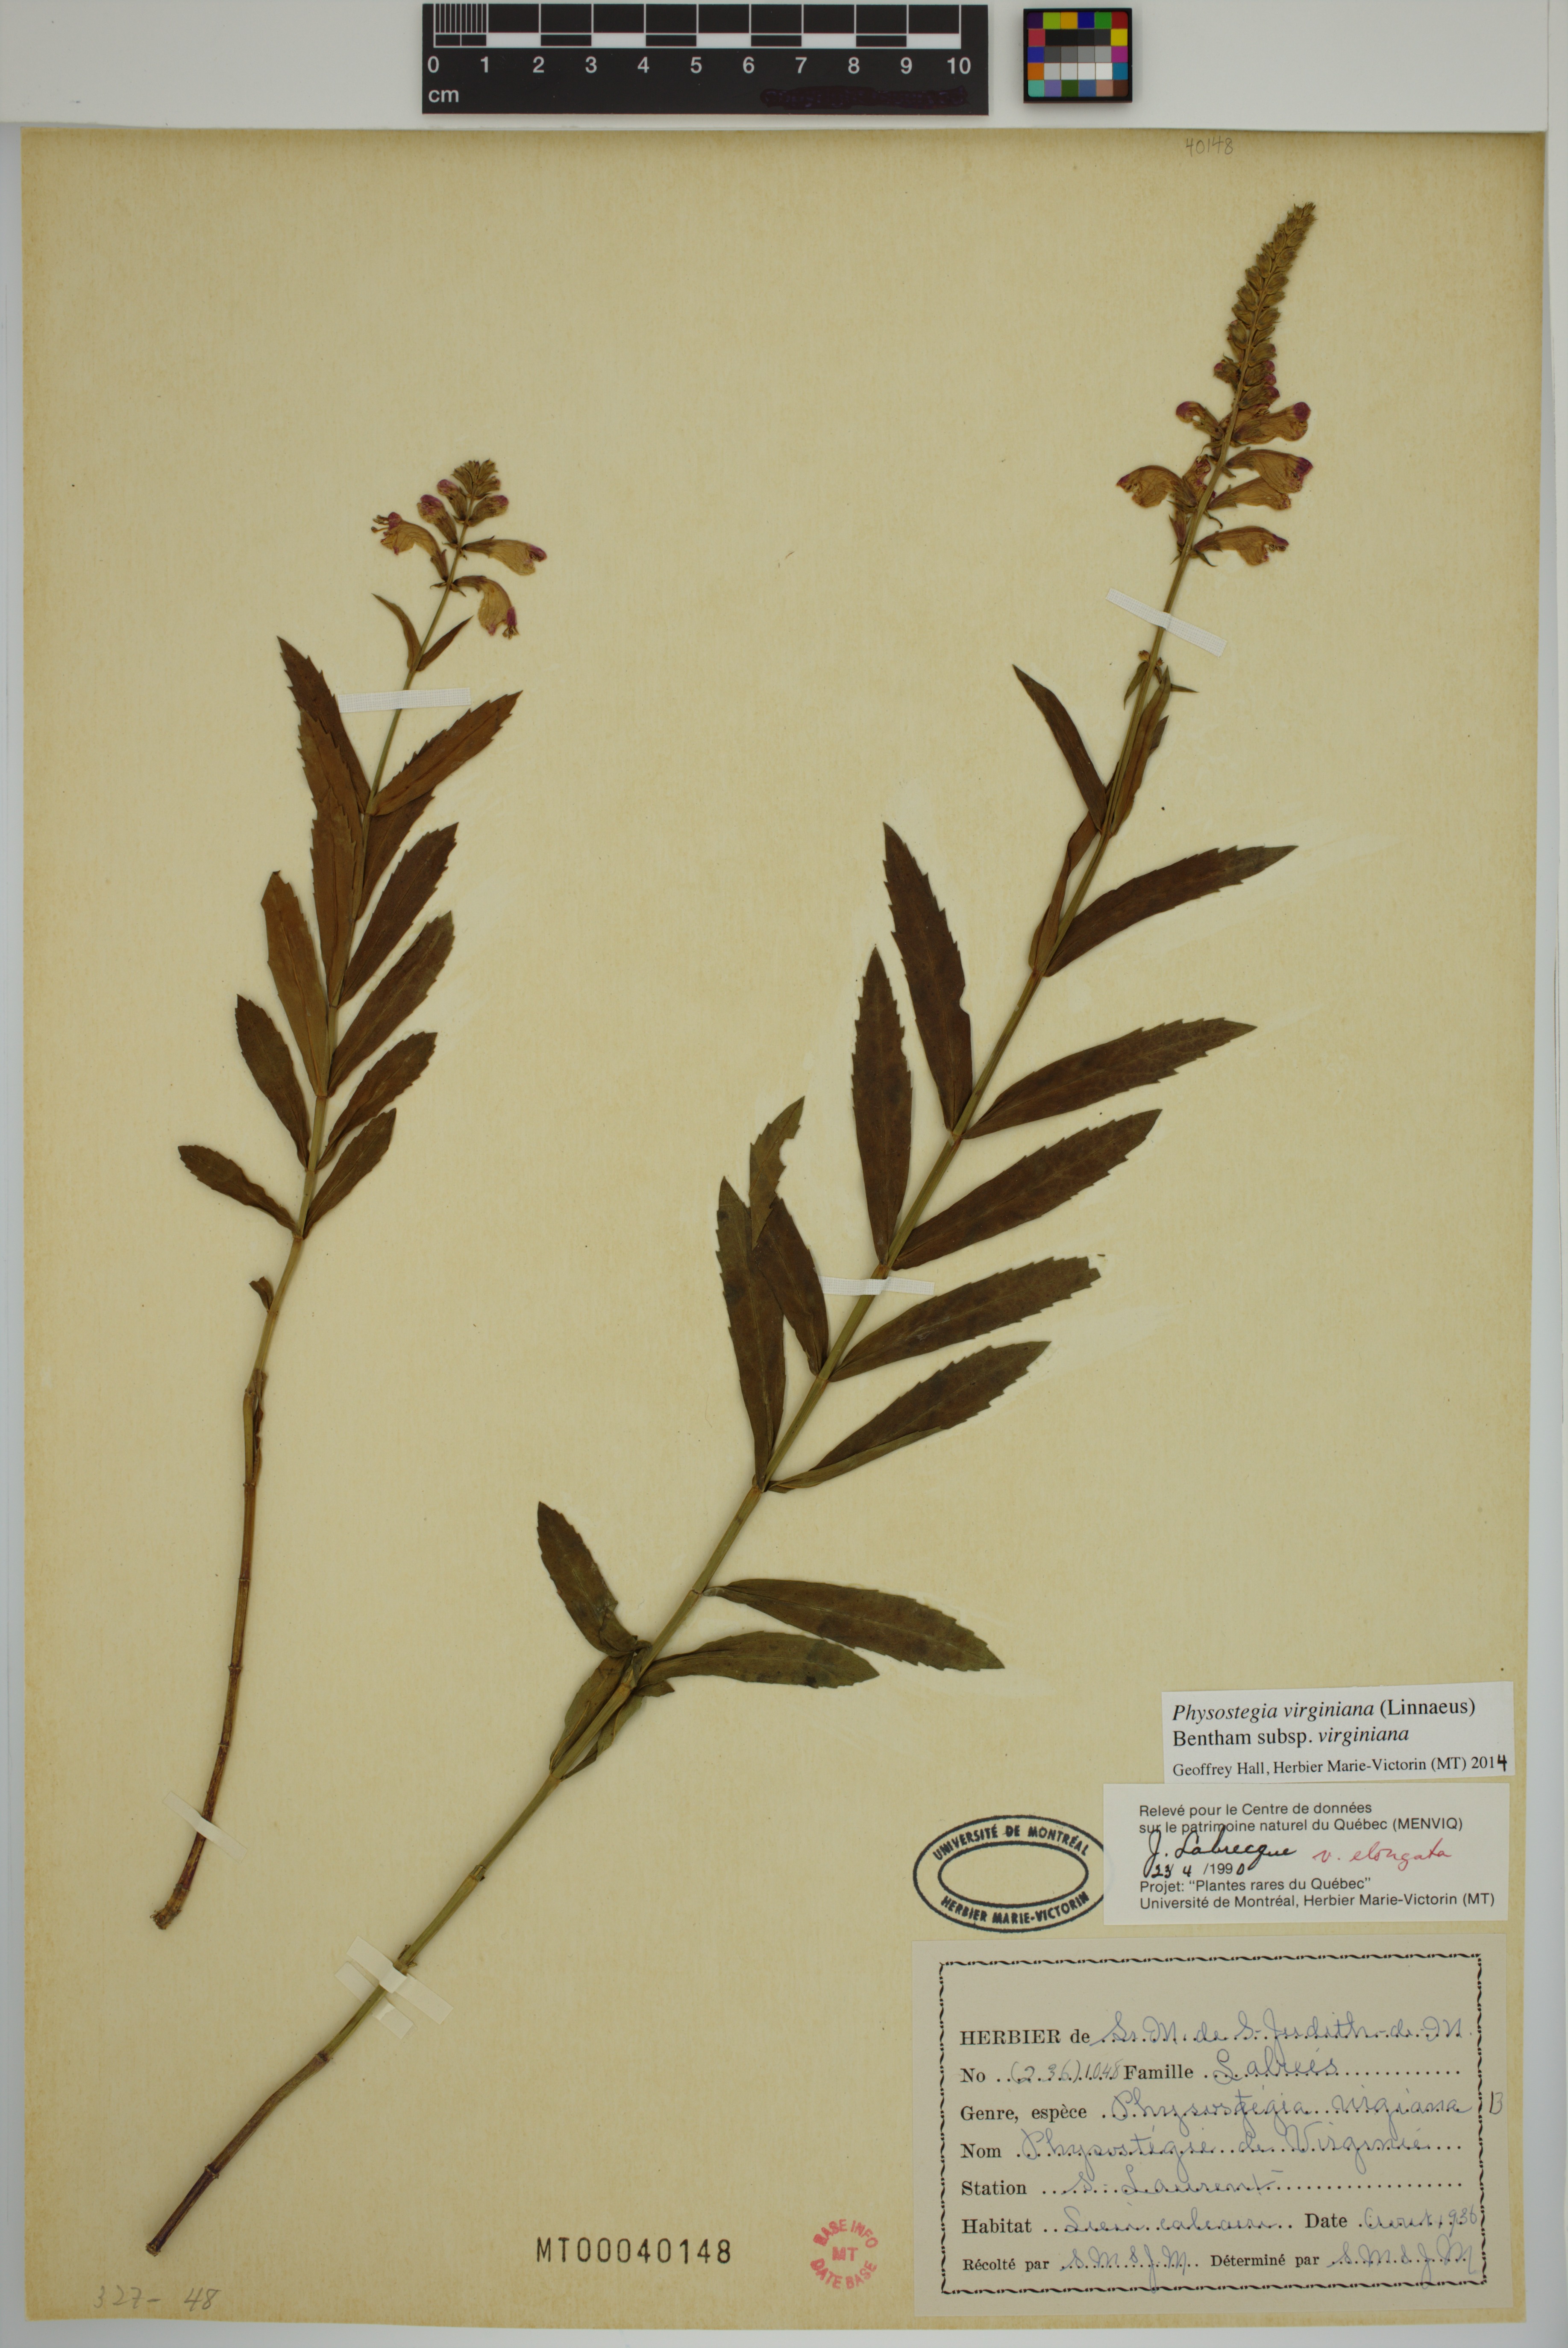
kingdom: Plantae
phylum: Tracheophyta
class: Magnoliopsida
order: Lamiales
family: Lamiaceae
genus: Physostegia
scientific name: Physostegia virginiana
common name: Obedient-plant
